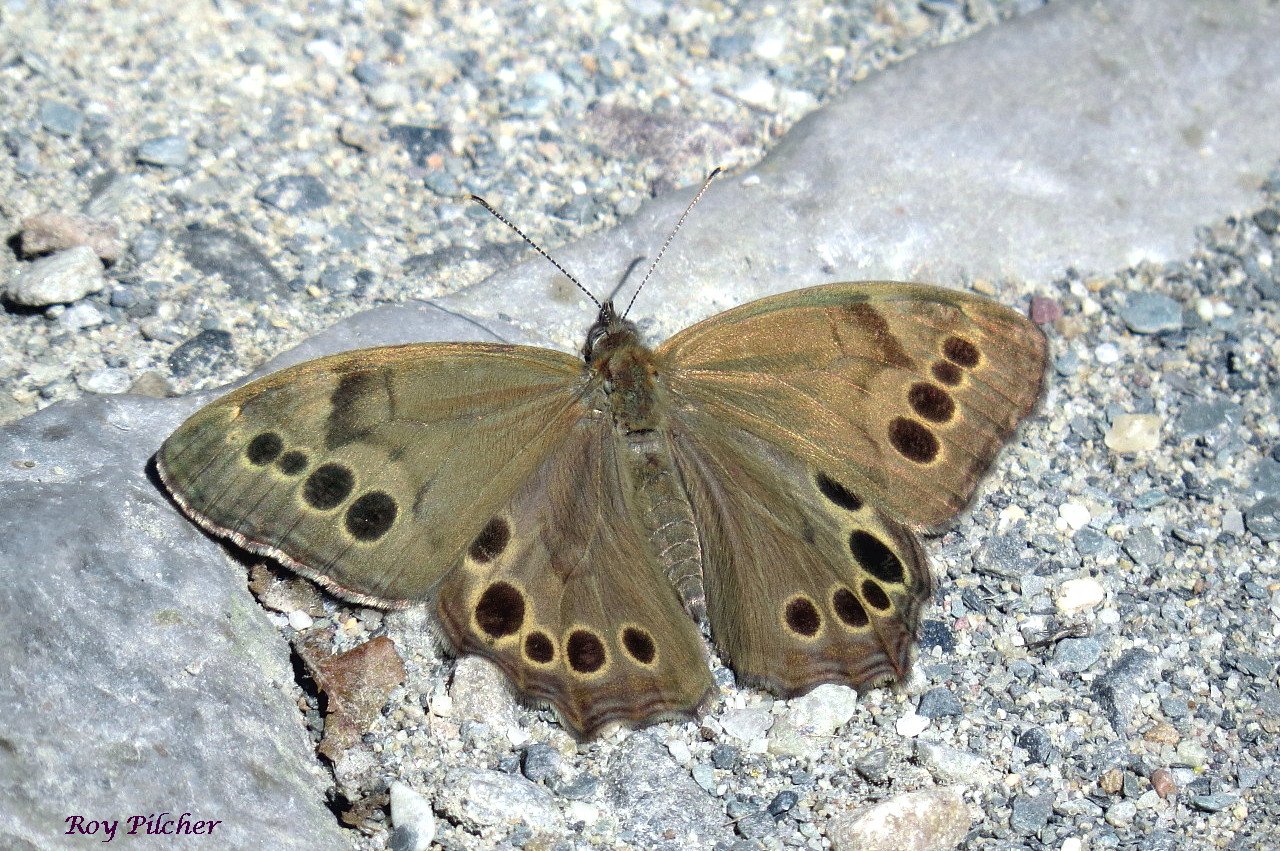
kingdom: Animalia
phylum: Arthropoda
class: Insecta
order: Lepidoptera
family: Nymphalidae
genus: Lethe
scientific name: Lethe anthedon
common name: Northern Pearly-Eye
